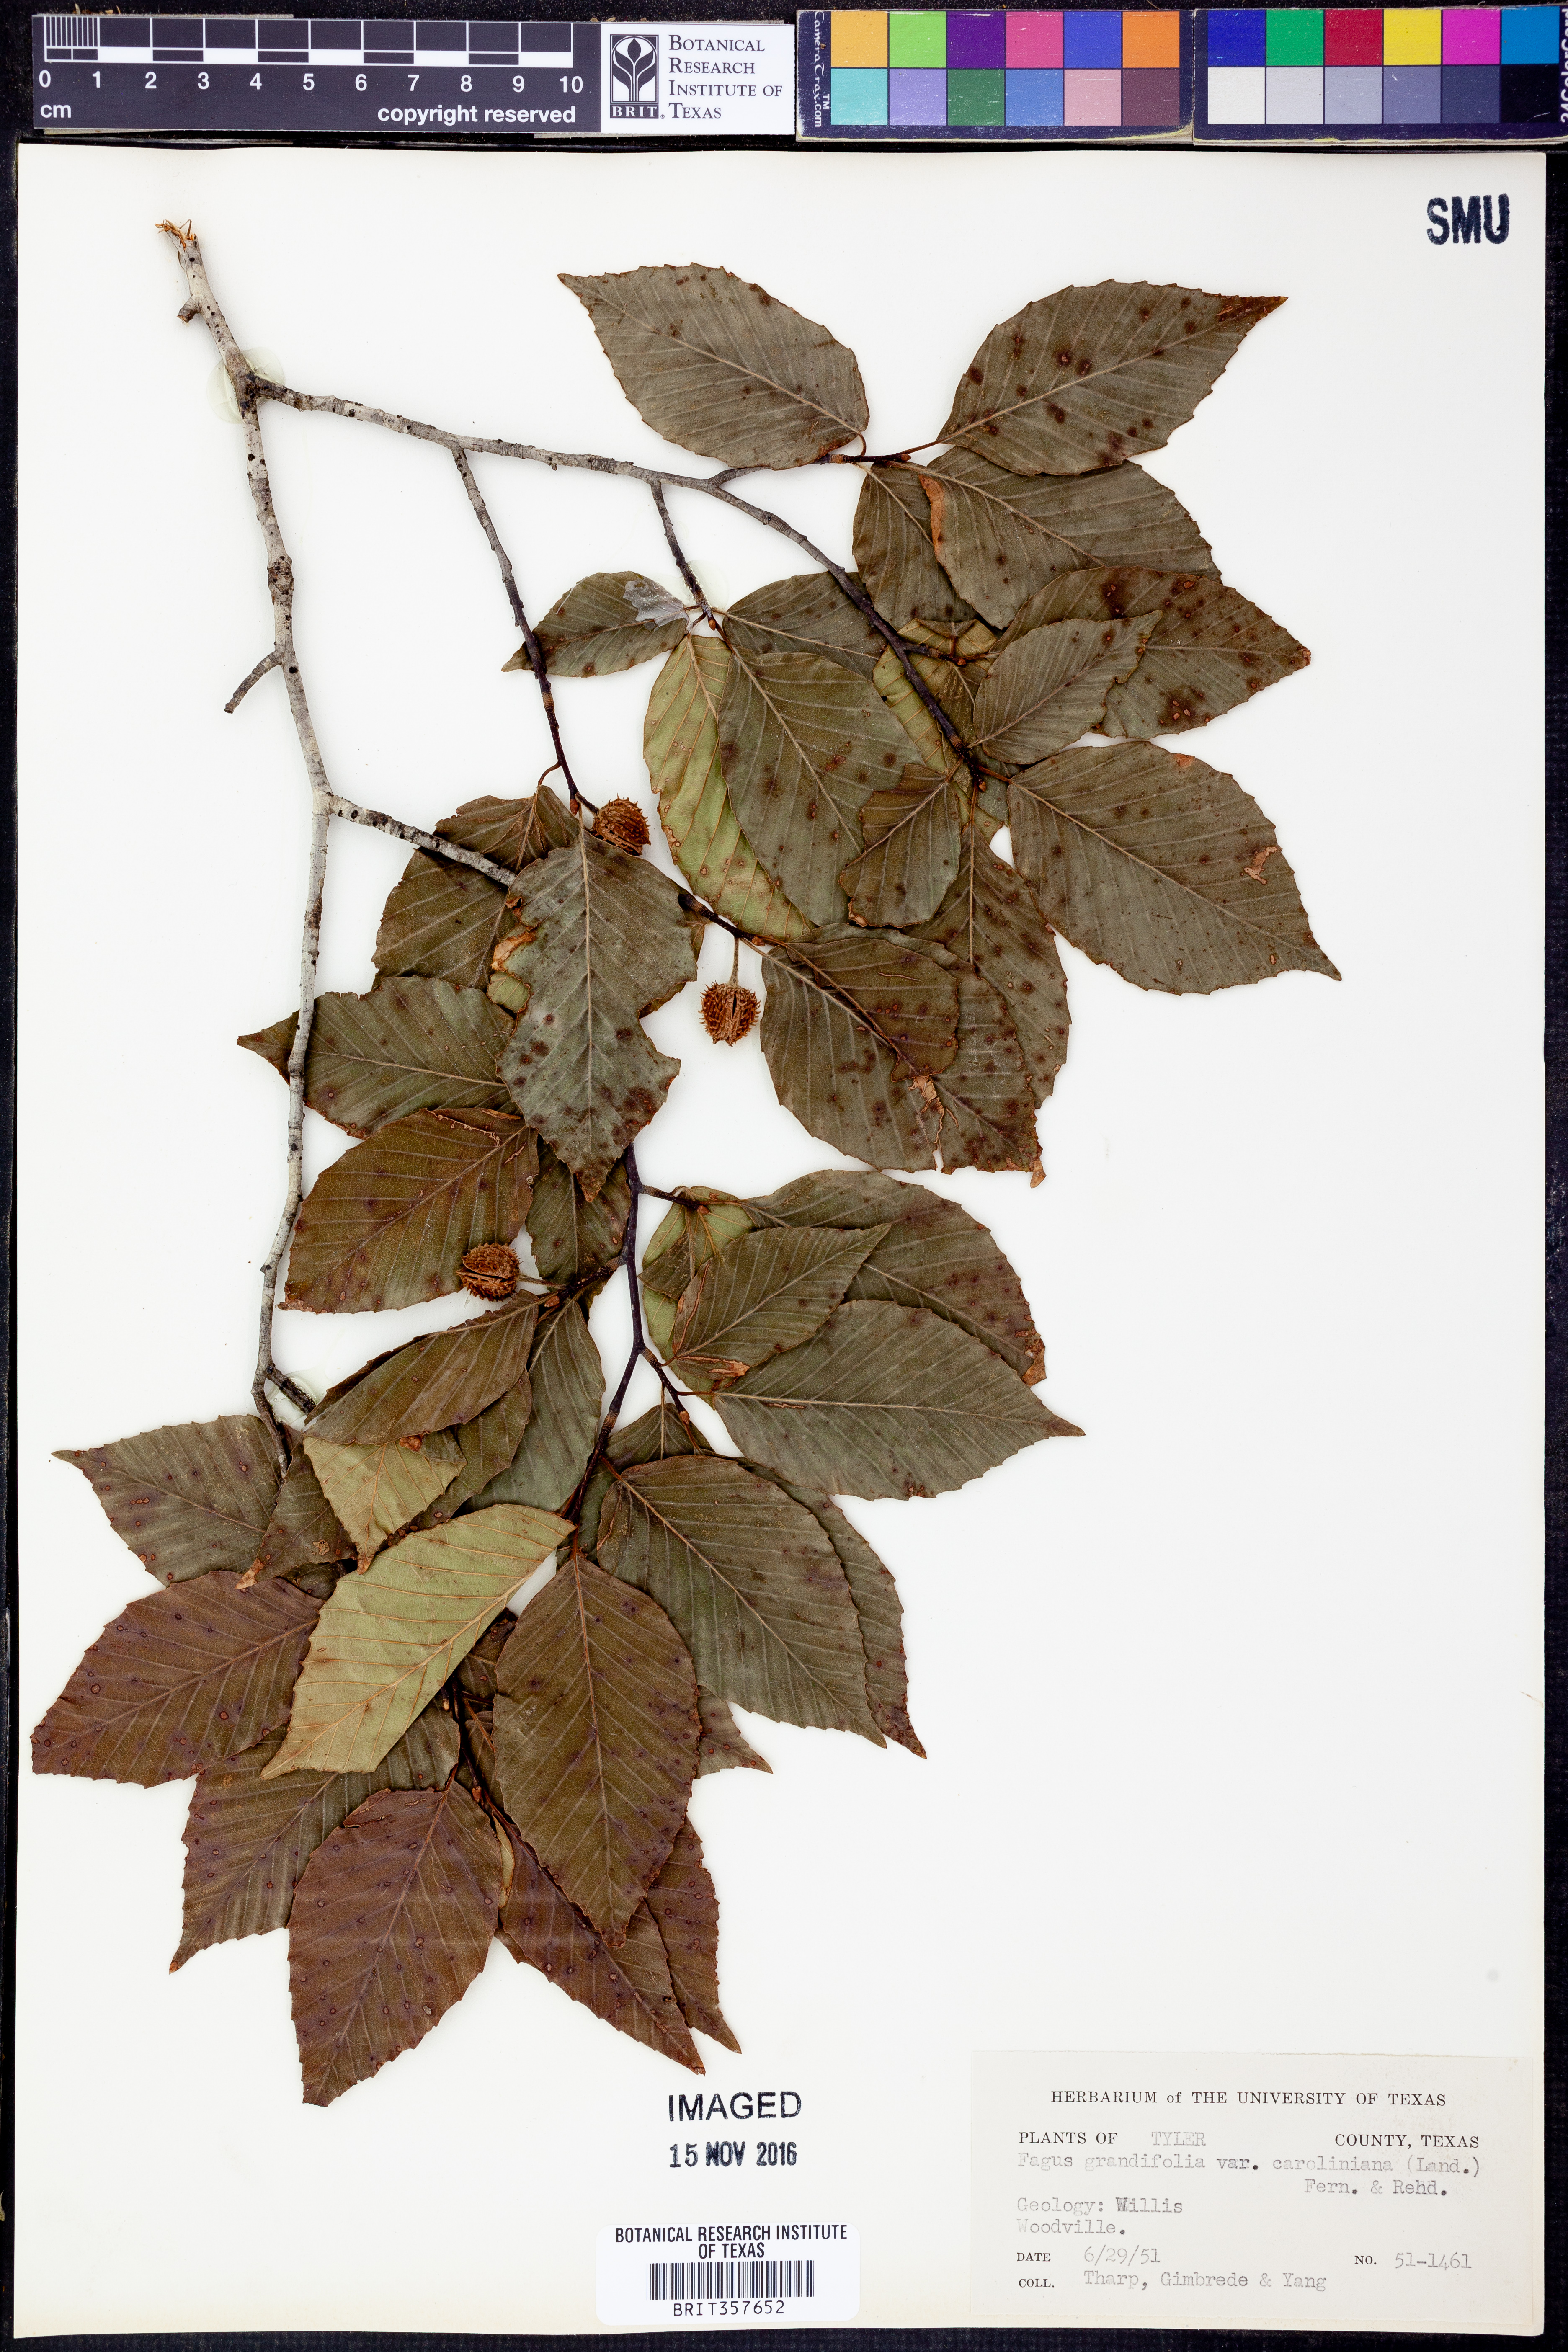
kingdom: Plantae
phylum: Tracheophyta
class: Magnoliopsida
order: Fagales
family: Fagaceae
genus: Fagus
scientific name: Fagus grandifolia
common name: American beech
